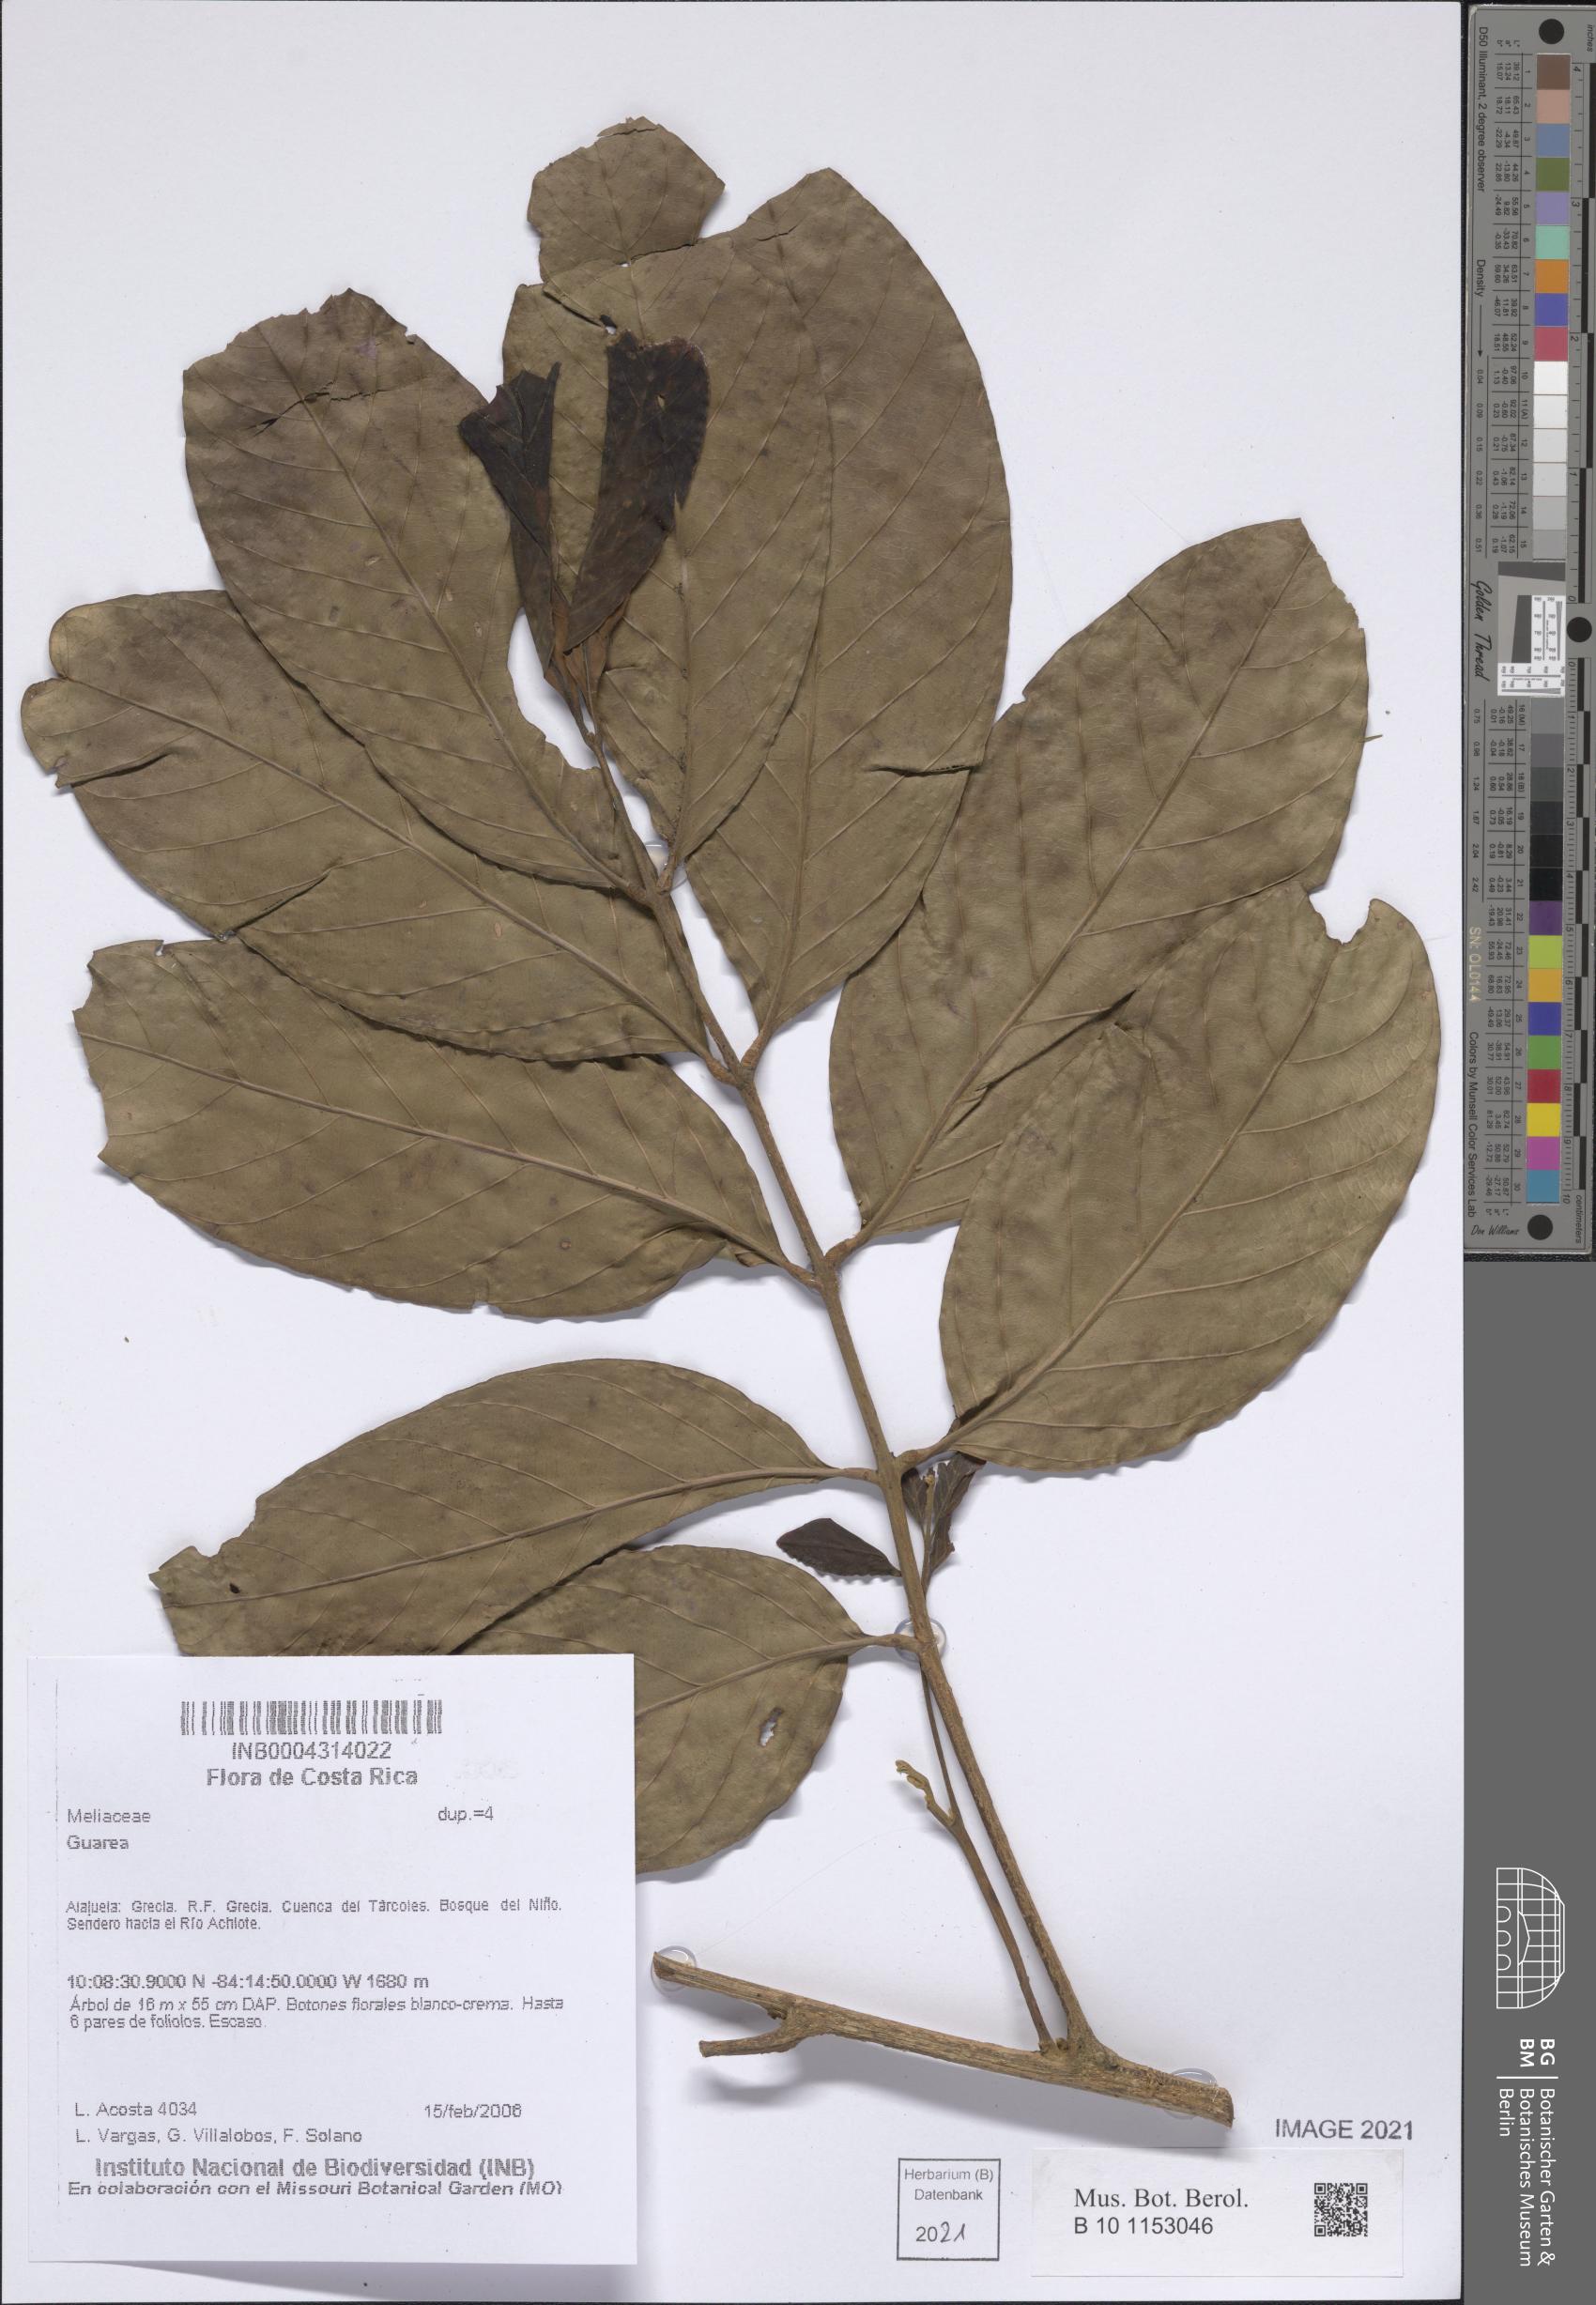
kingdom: Plantae
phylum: Tracheophyta
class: Magnoliopsida
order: Sapindales
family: Meliaceae
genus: Guarea
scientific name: Guarea
